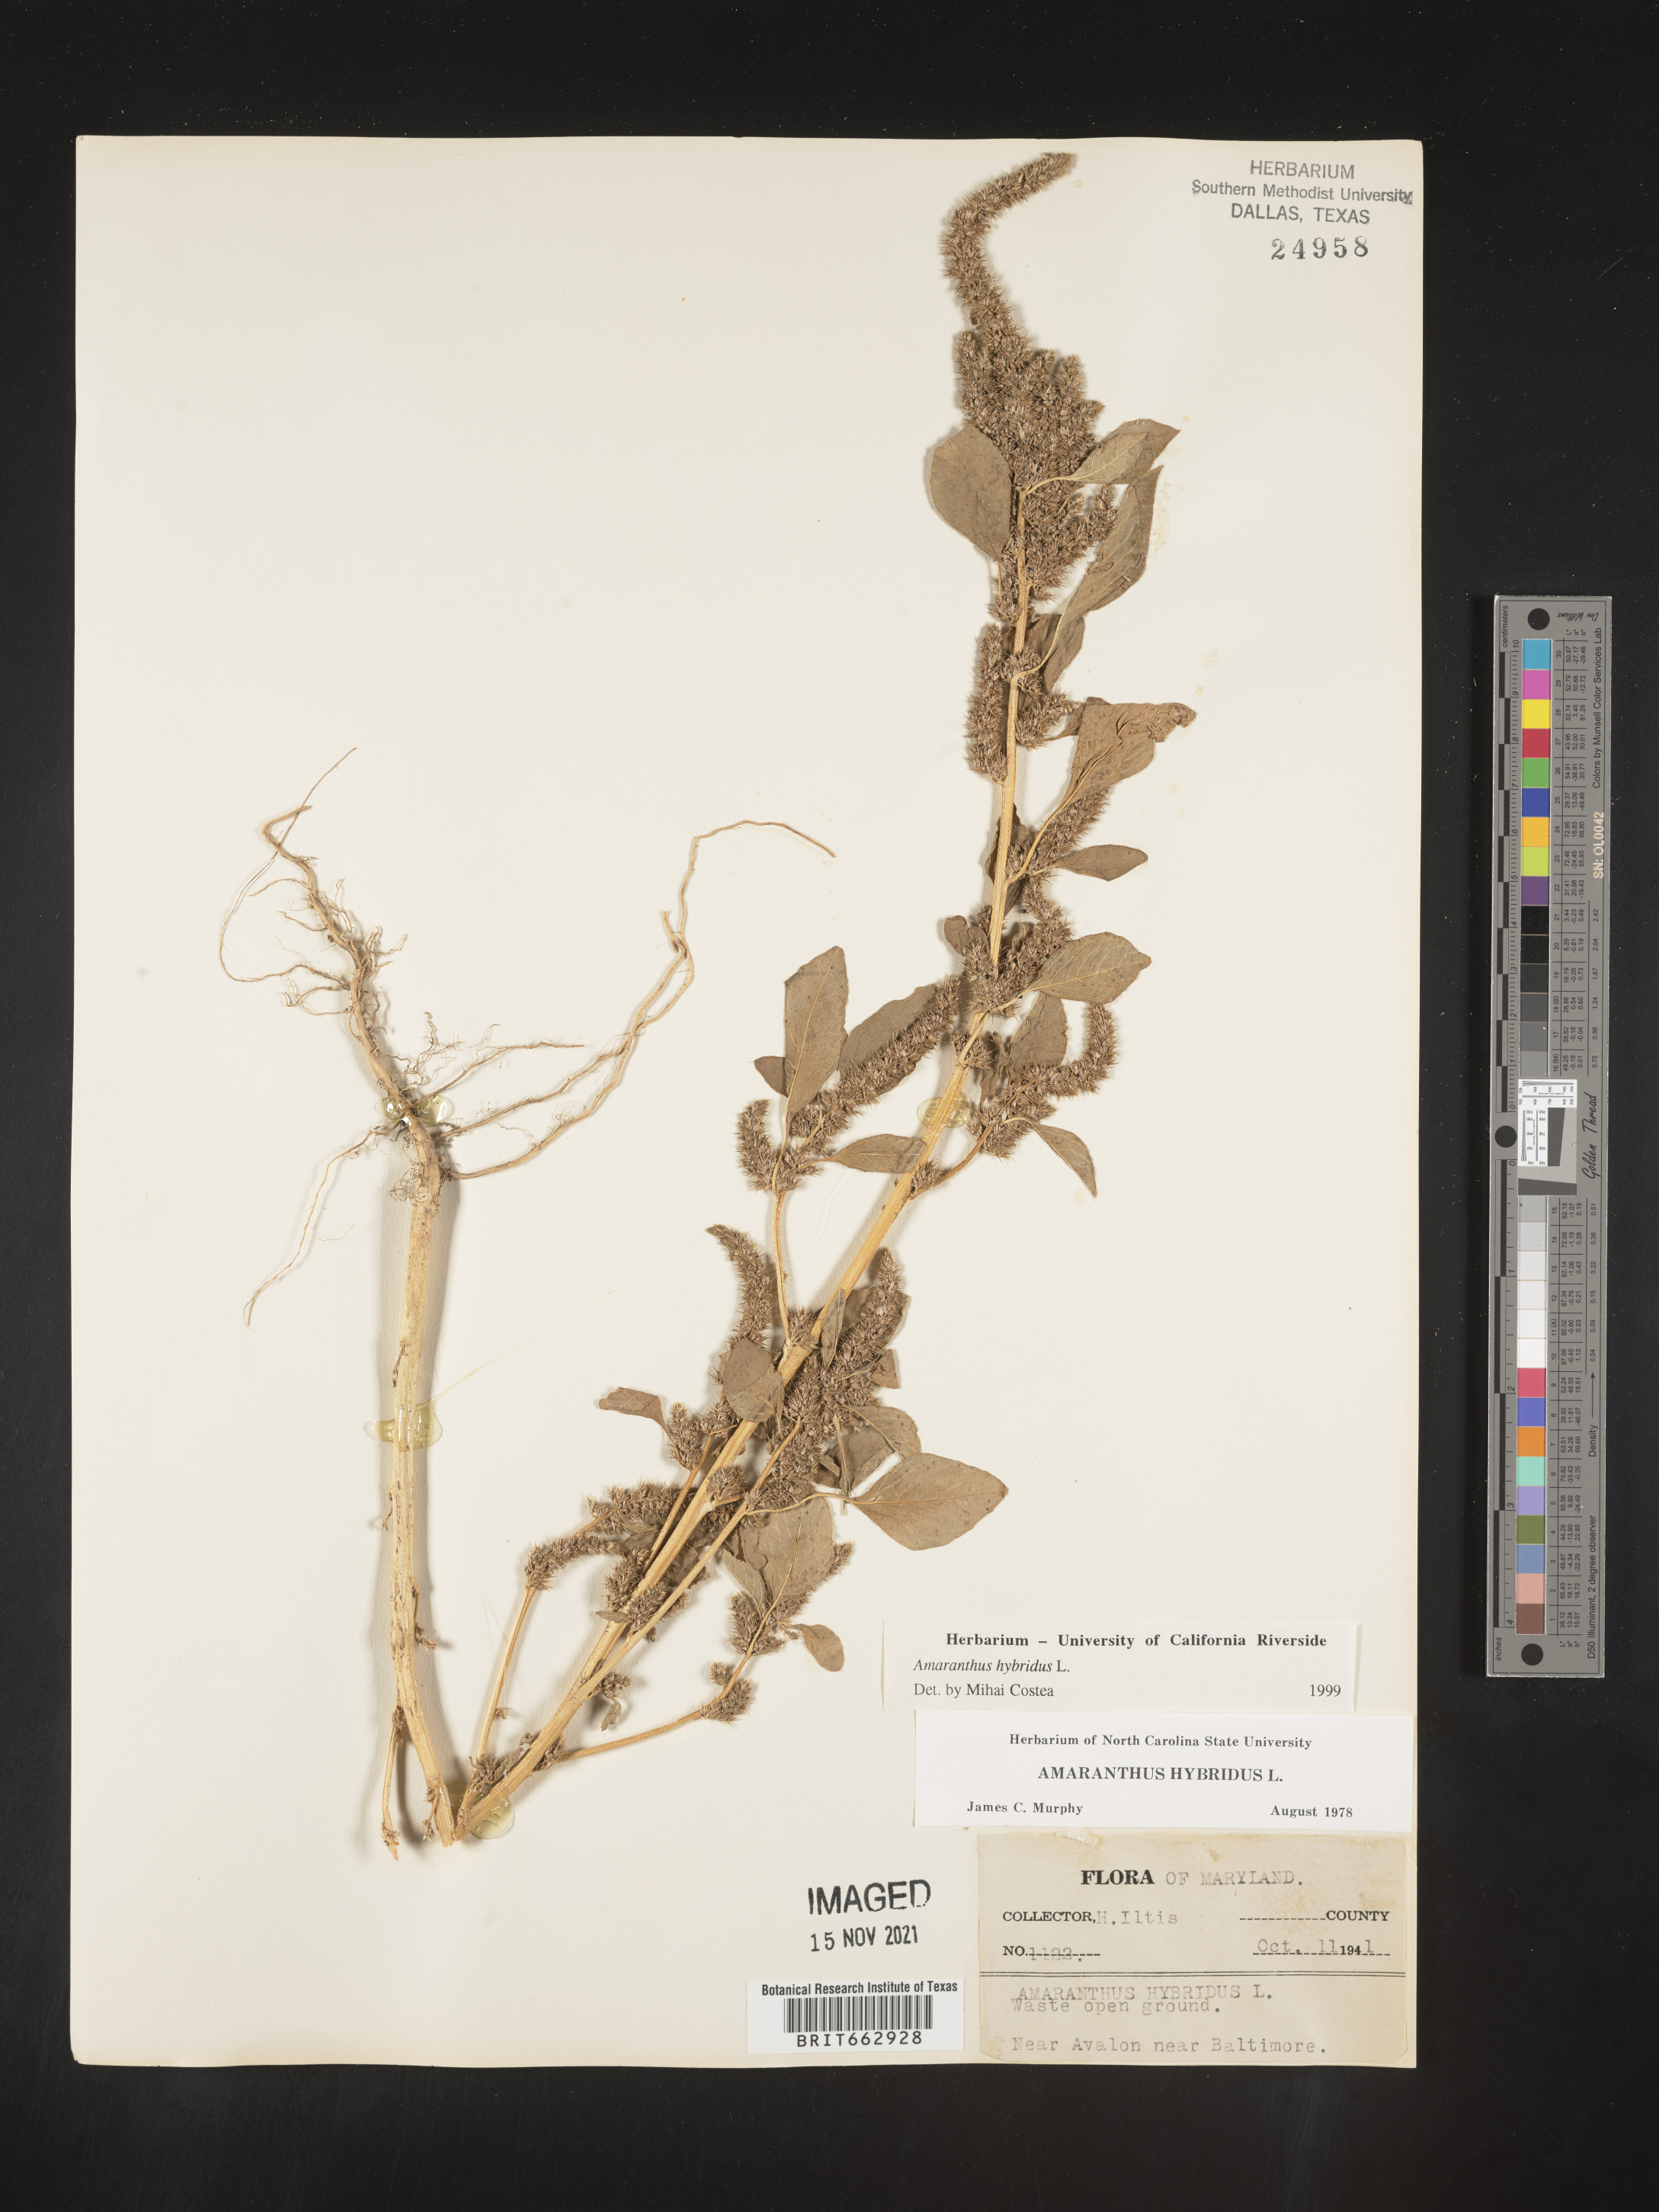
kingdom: Plantae
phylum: Tracheophyta
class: Magnoliopsida
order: Caryophyllales
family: Amaranthaceae
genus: Amaranthus
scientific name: Amaranthus hybridus
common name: Green amaranth
